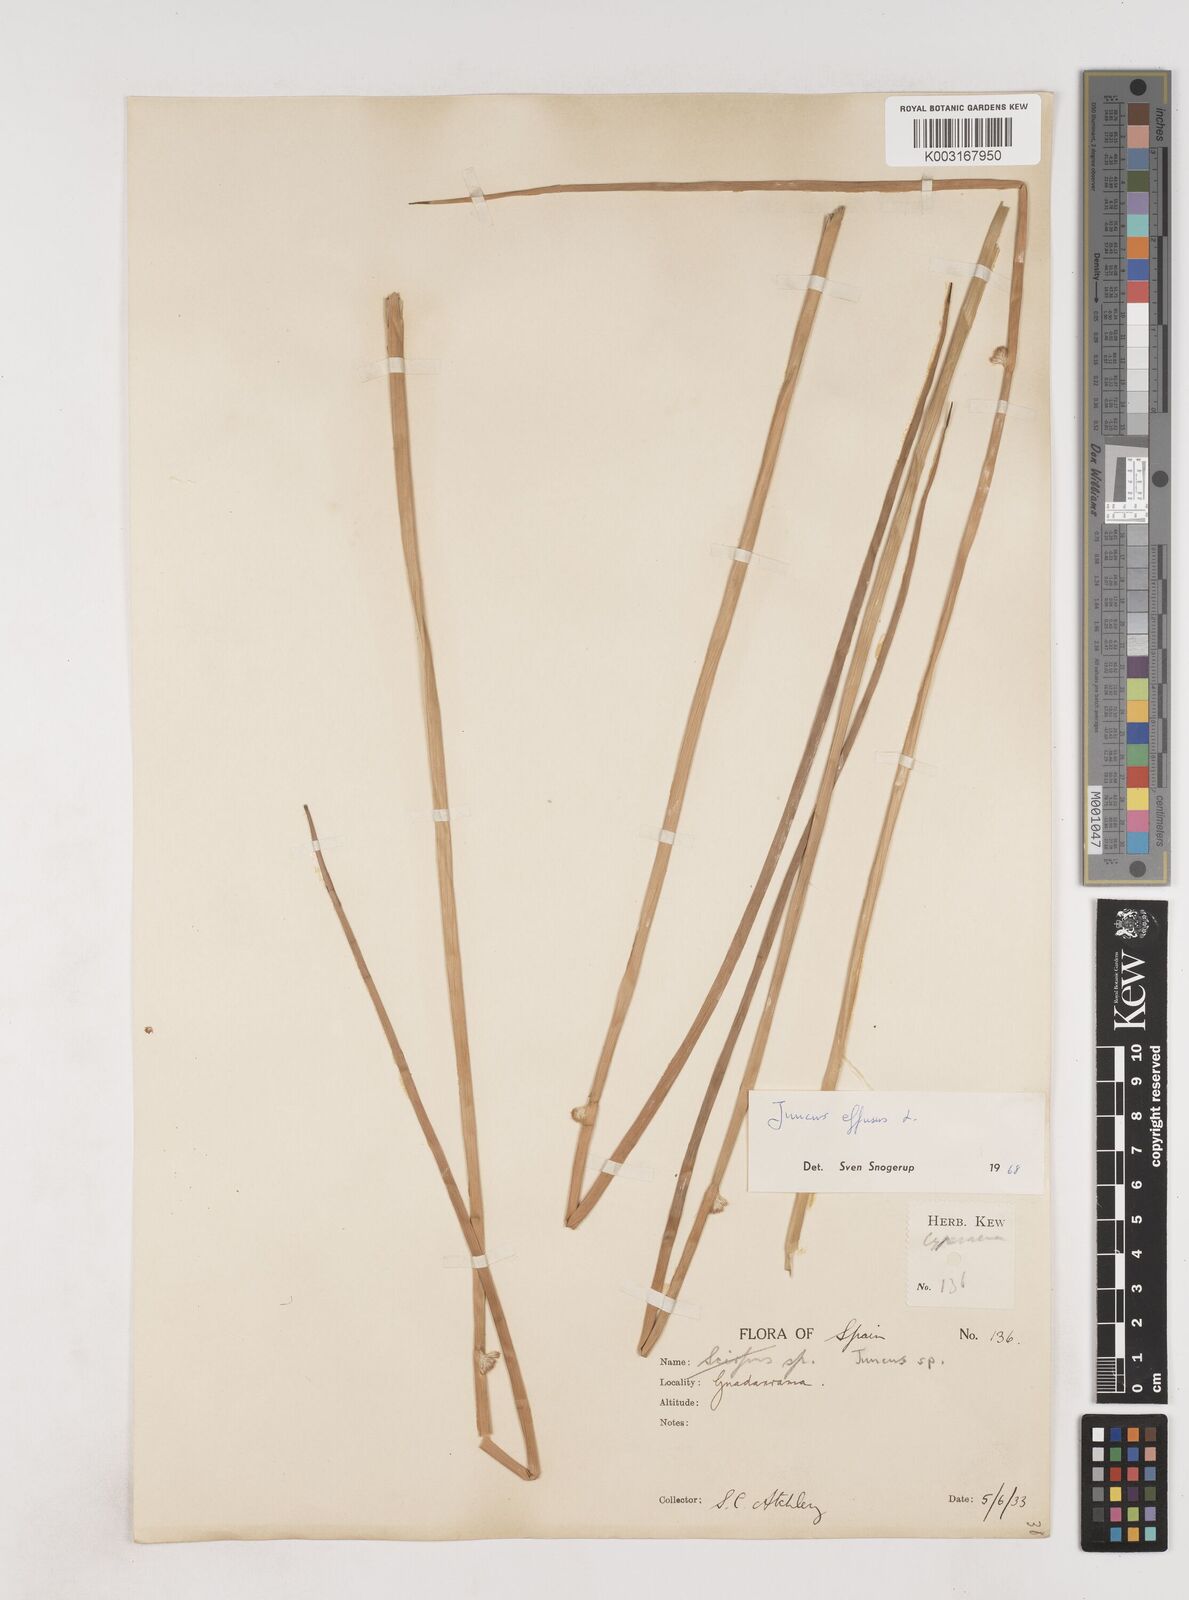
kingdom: Plantae
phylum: Tracheophyta
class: Liliopsida
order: Poales
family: Juncaceae
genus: Juncus
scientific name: Juncus effusus
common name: Soft rush
